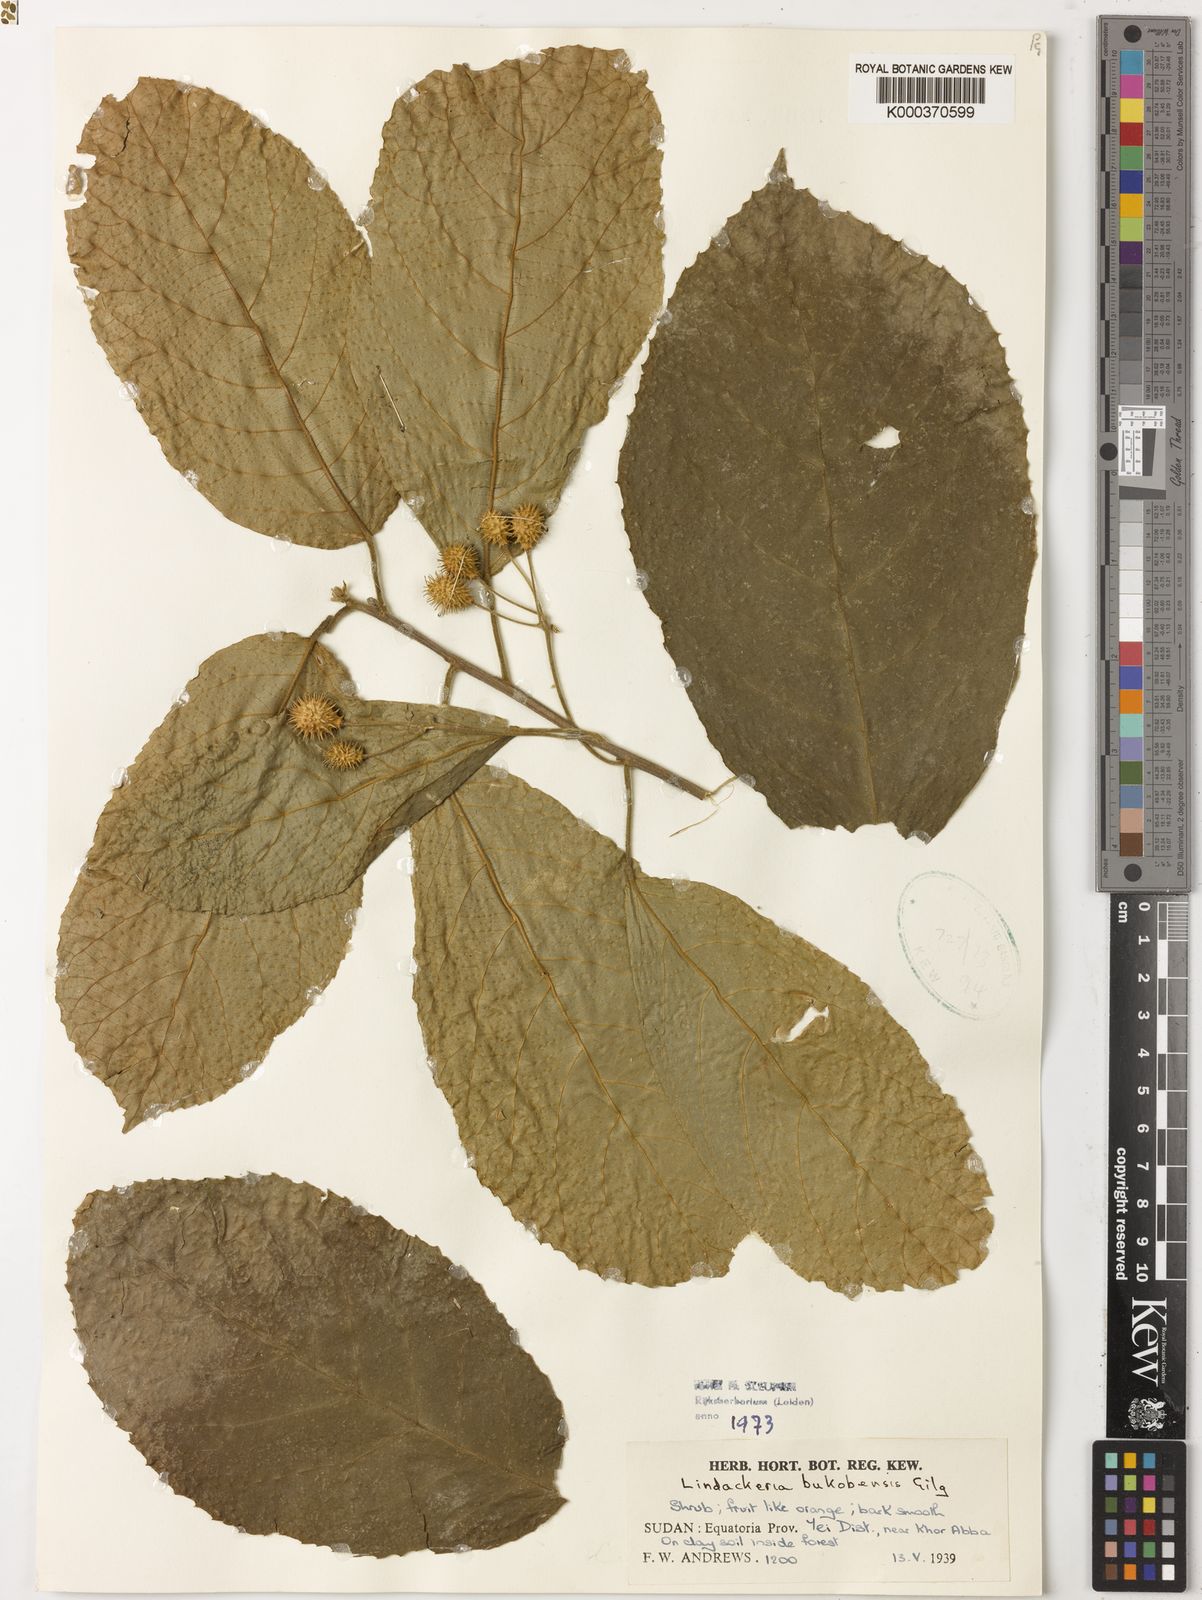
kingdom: Plantae
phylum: Tracheophyta
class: Magnoliopsida
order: Malpighiales
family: Achariaceae
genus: Lindackeria
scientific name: Lindackeria bukobensis
